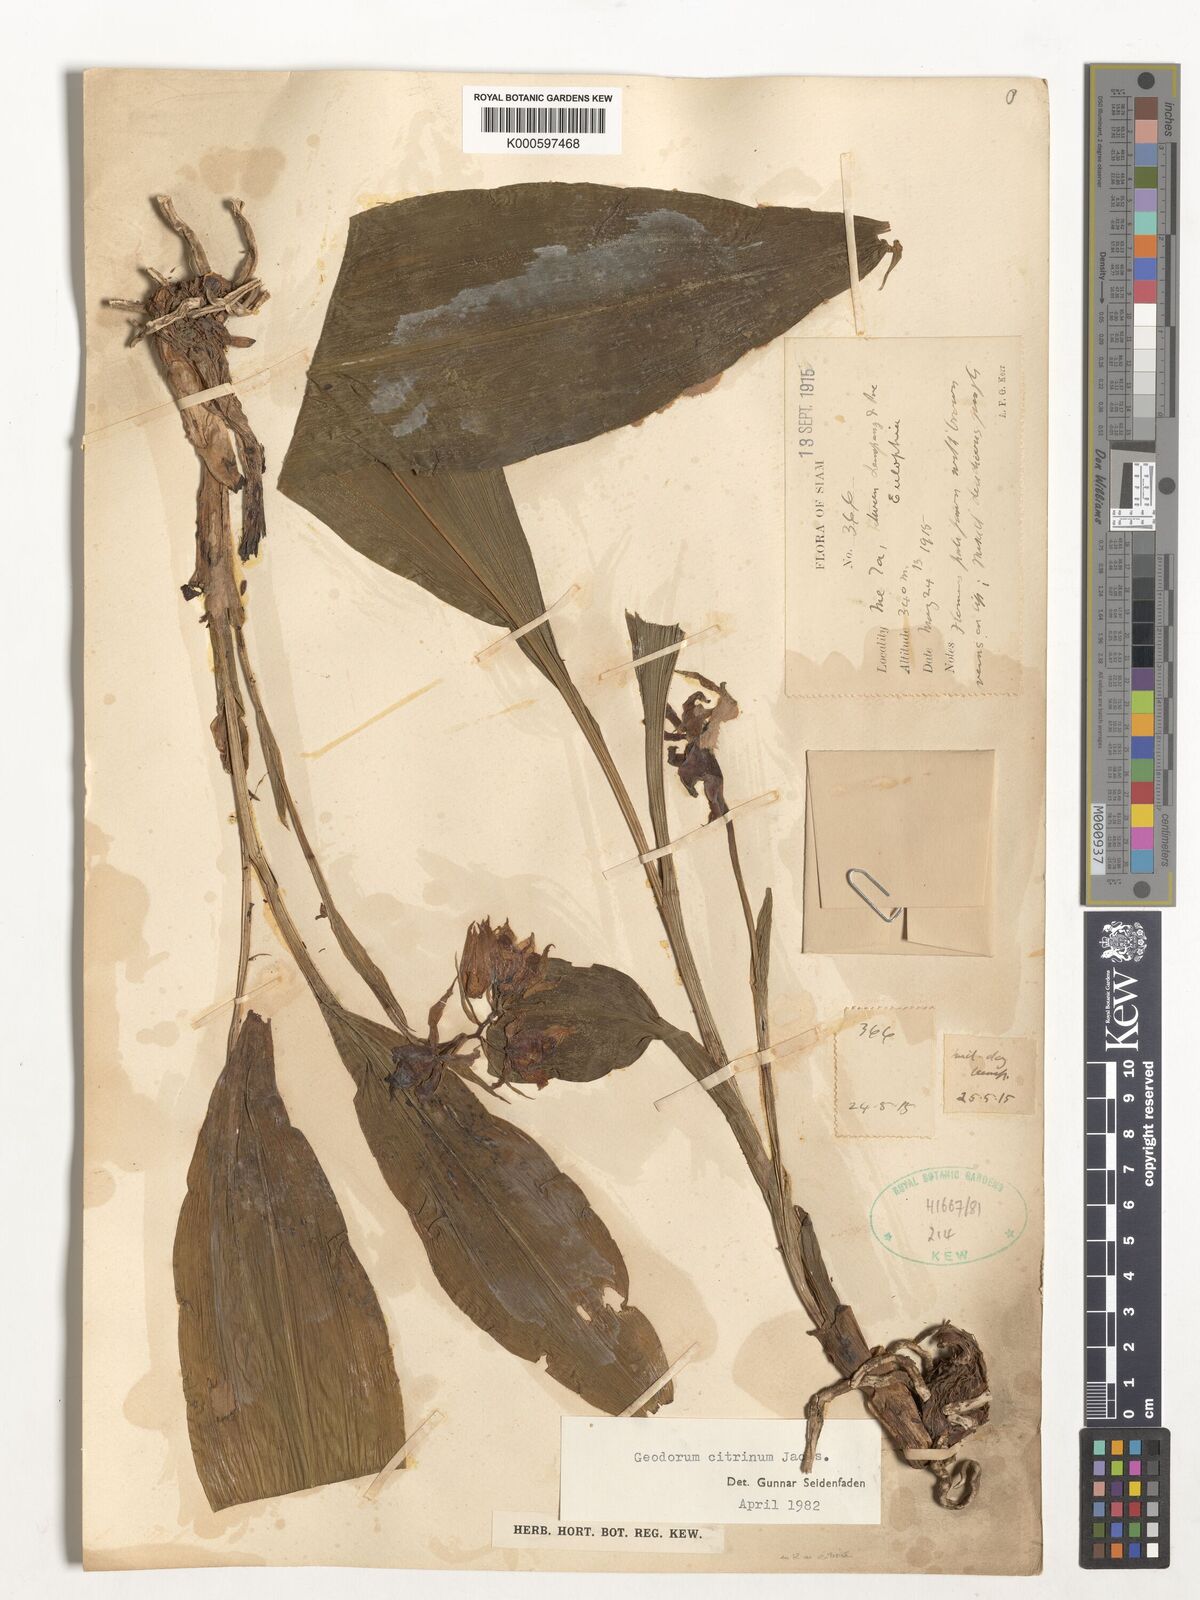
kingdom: Plantae
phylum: Tracheophyta
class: Liliopsida
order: Asparagales
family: Orchidaceae
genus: Geodorum
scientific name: Geodorum
